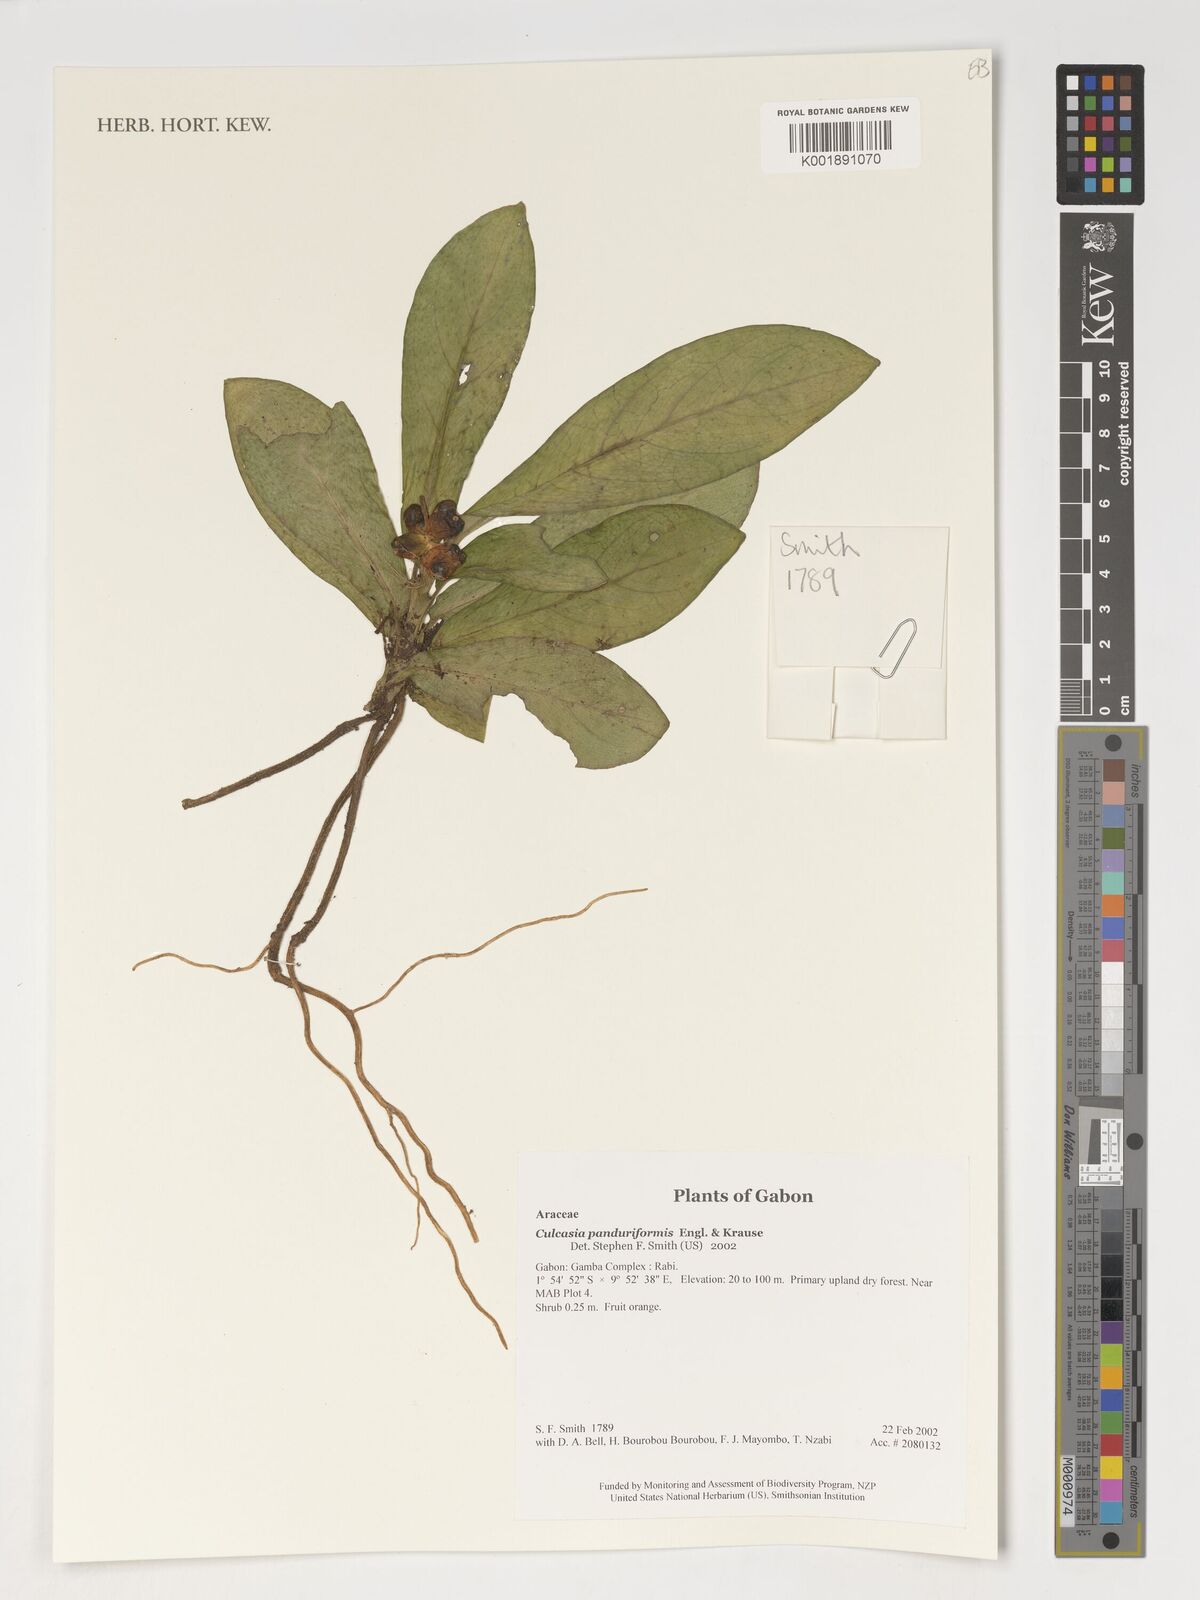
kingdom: Plantae
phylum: Tracheophyta
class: Liliopsida
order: Alismatales
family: Araceae
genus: Culcasia
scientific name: Culcasia panduriformis
